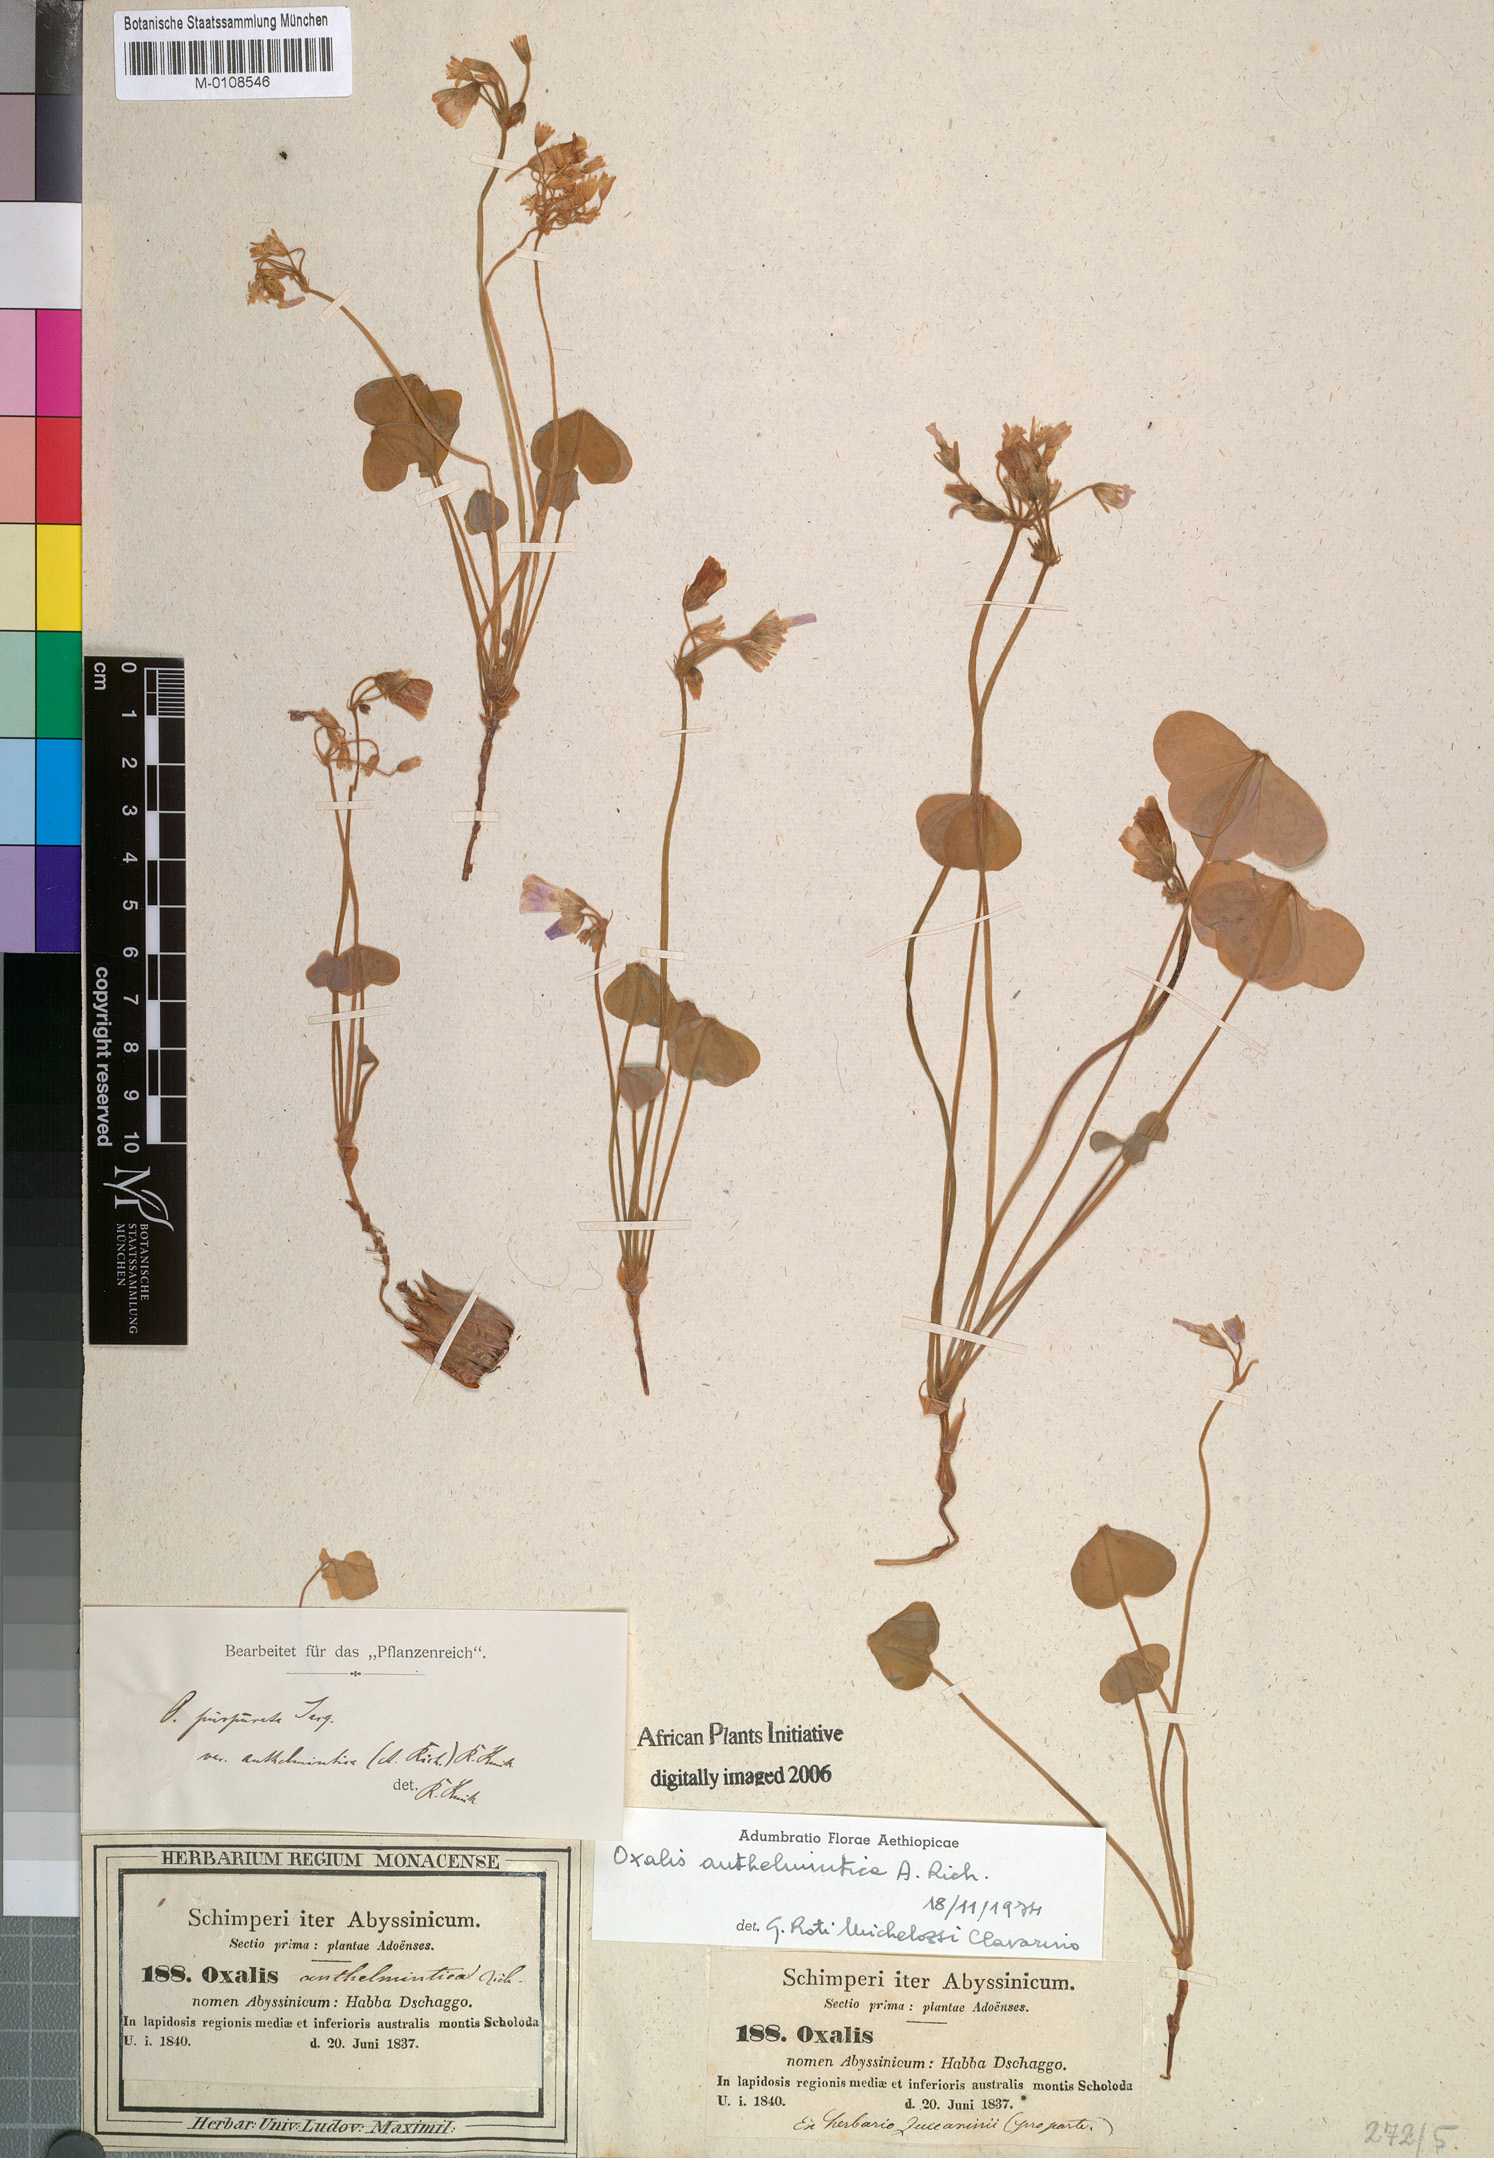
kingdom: Plantae
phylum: Tracheophyta
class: Magnoliopsida
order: Oxalidales
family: Oxalidaceae
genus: Oxalis
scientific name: Oxalis anthelmintica
